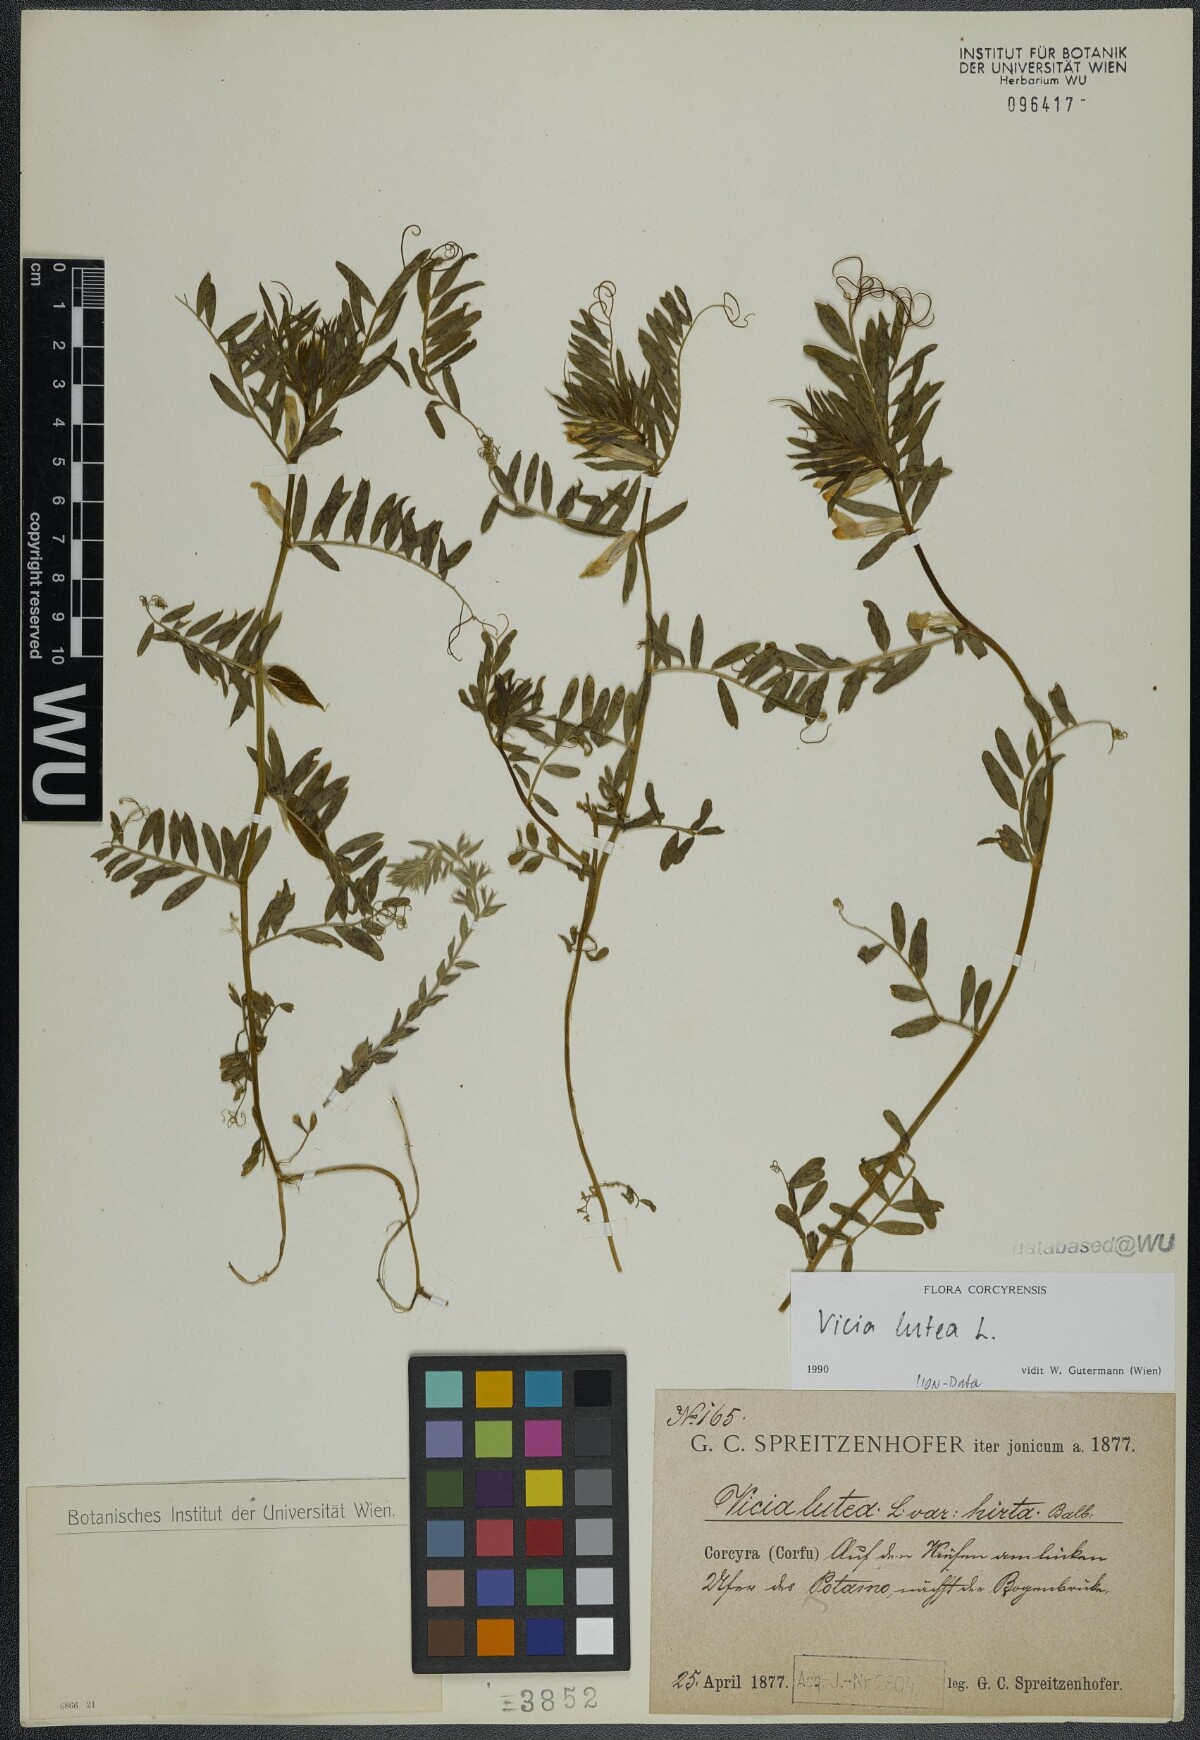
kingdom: Plantae
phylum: Tracheophyta
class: Magnoliopsida
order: Fabales
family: Fabaceae
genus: Vicia
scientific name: Vicia lutea
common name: Smooth yellow vetch
